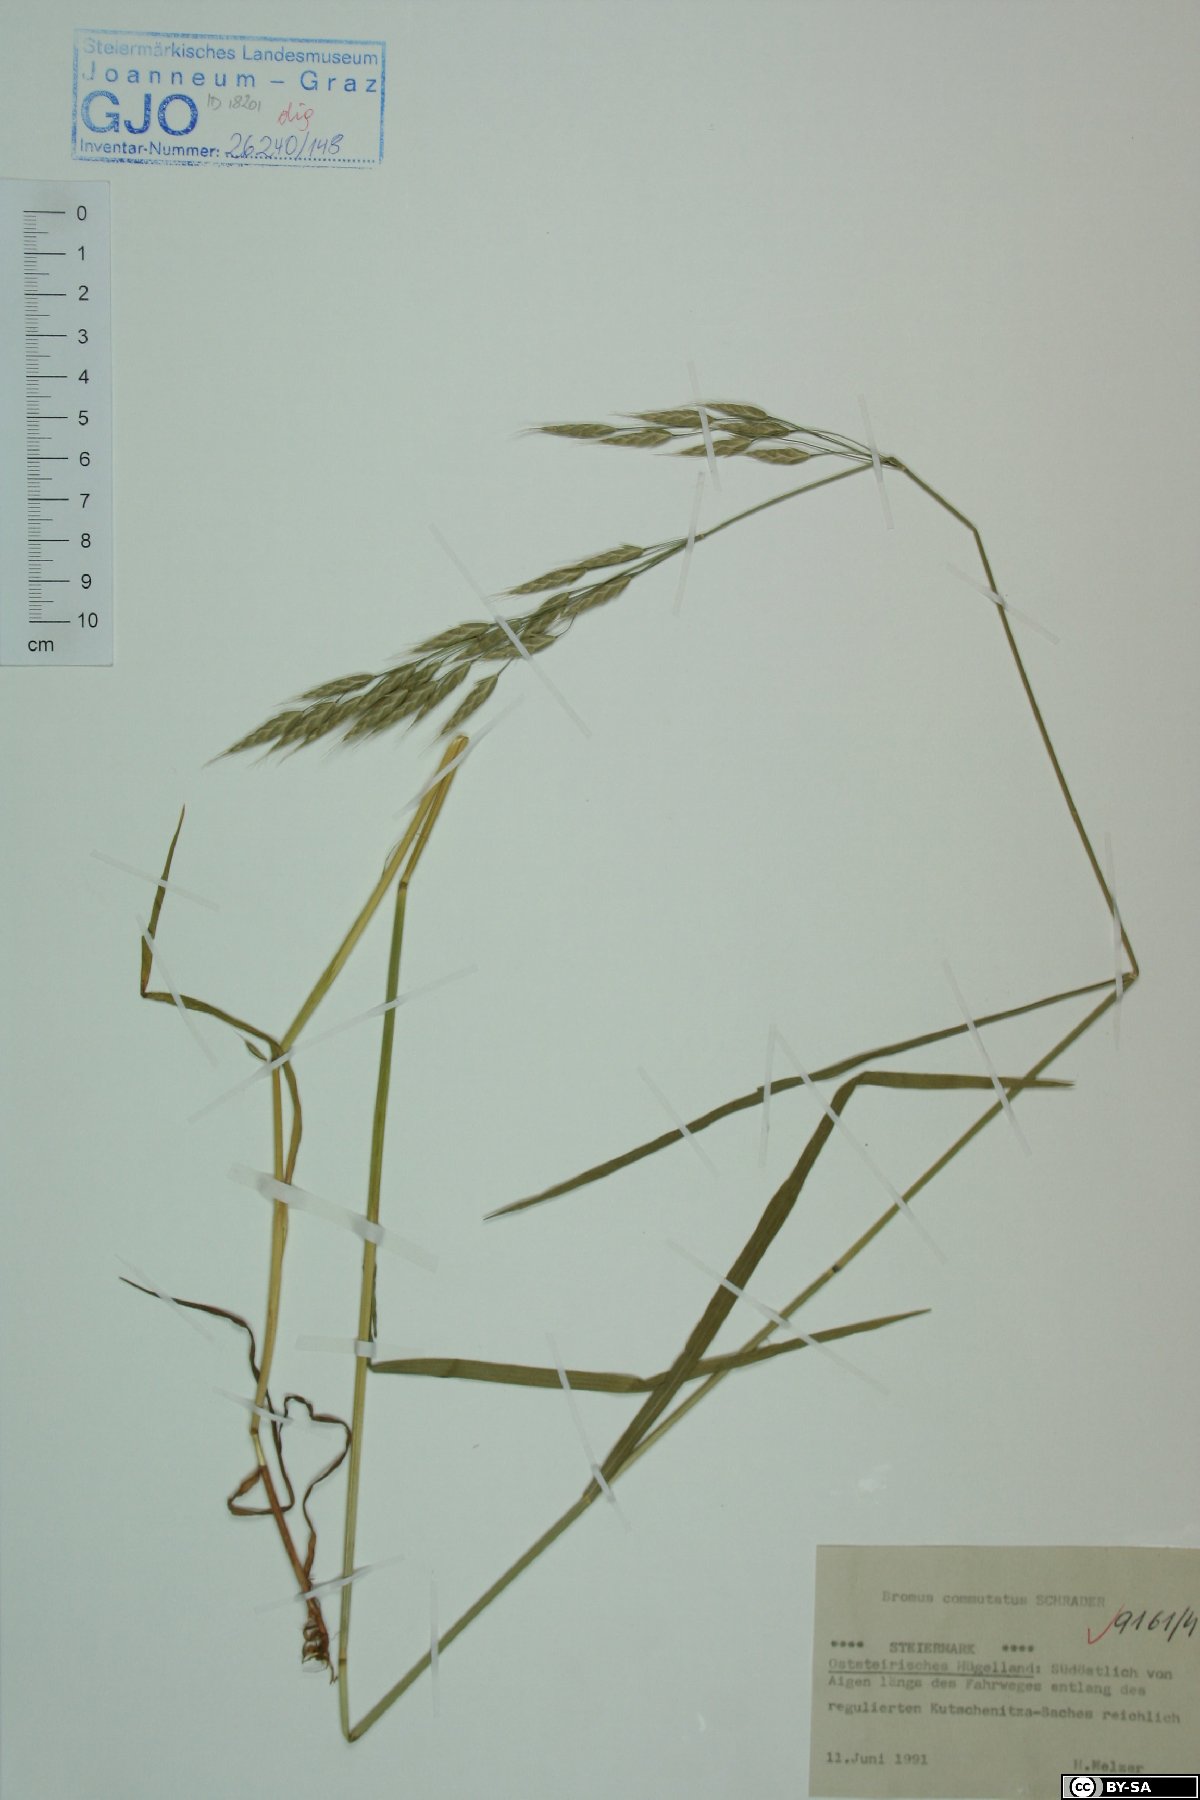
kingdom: Plantae
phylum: Tracheophyta
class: Liliopsida
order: Poales
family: Poaceae
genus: Bromus
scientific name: Bromus commutatus
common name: Meadow brome
